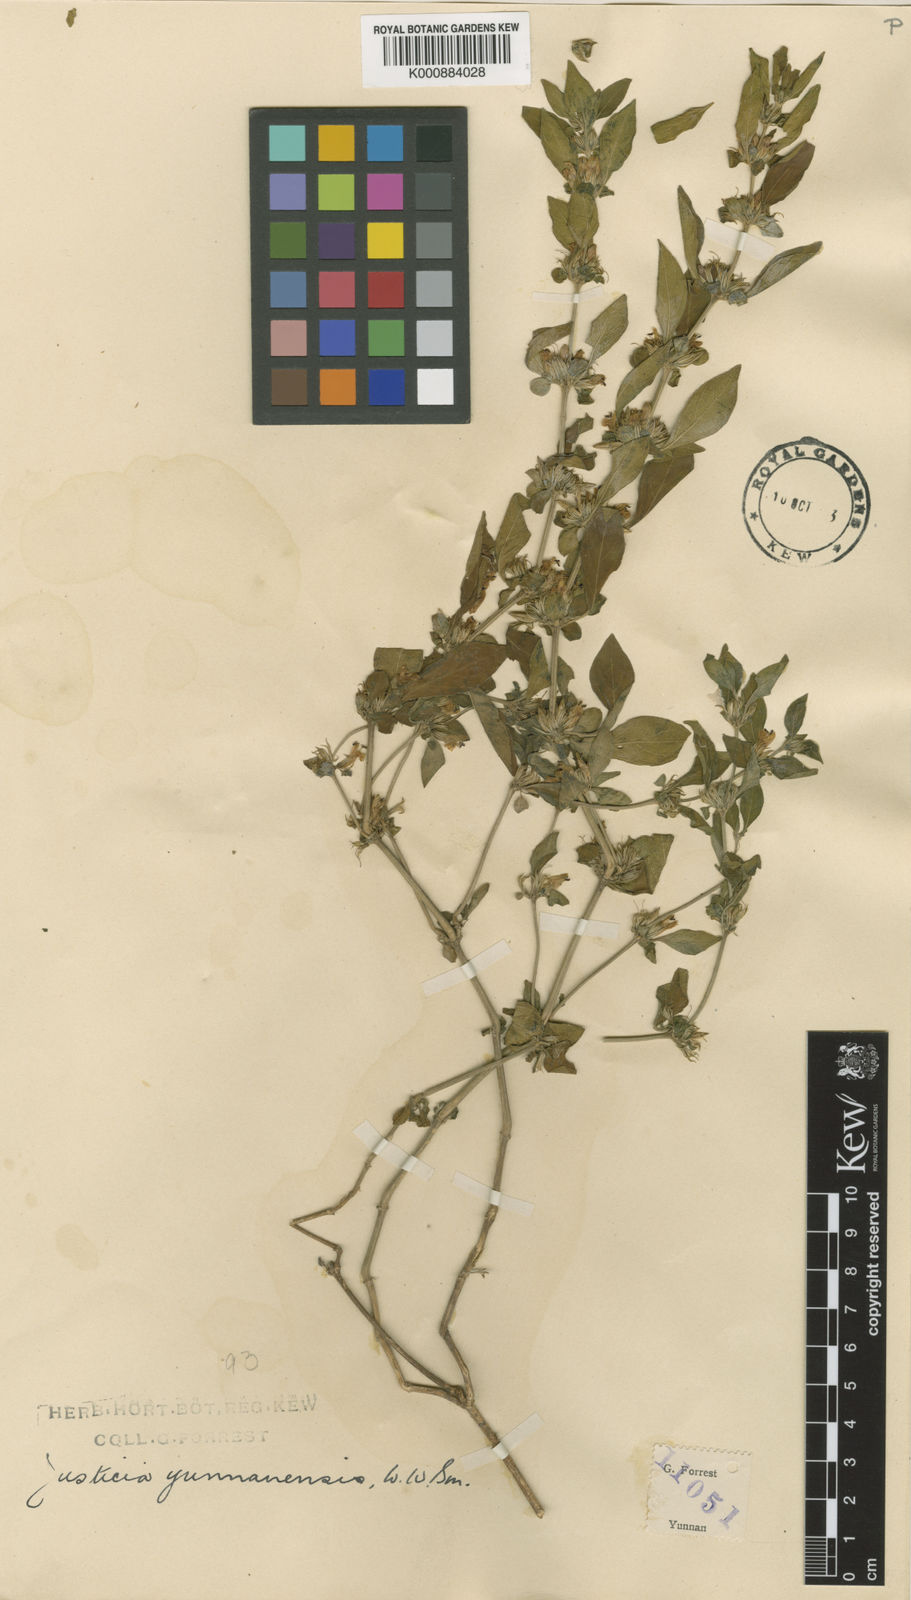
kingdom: Plantae
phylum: Tracheophyta
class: Magnoliopsida
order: Lamiales
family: Acanthaceae
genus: Justicia
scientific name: Justicia yunnanensis
